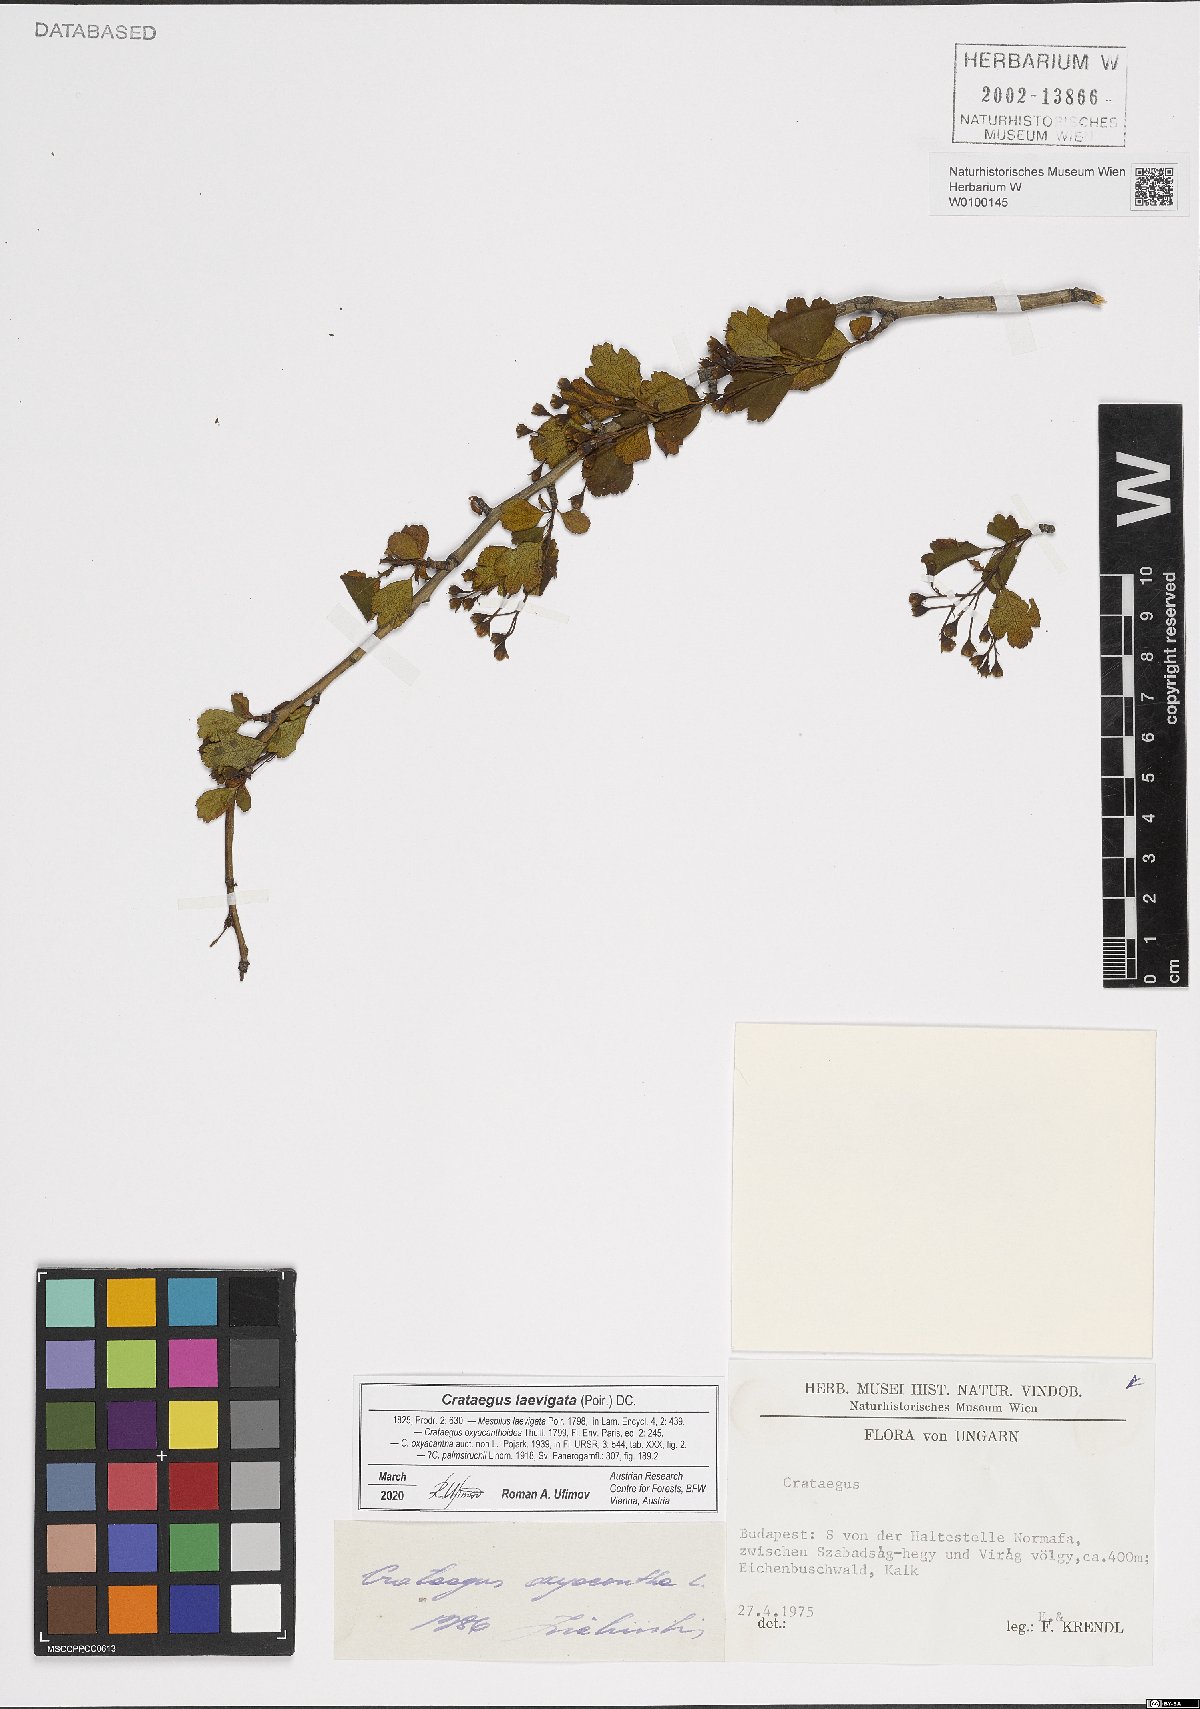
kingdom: Plantae
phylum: Tracheophyta
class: Magnoliopsida
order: Rosales
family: Rosaceae
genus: Crataegus
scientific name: Crataegus laevigata
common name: Midland hawthorn
